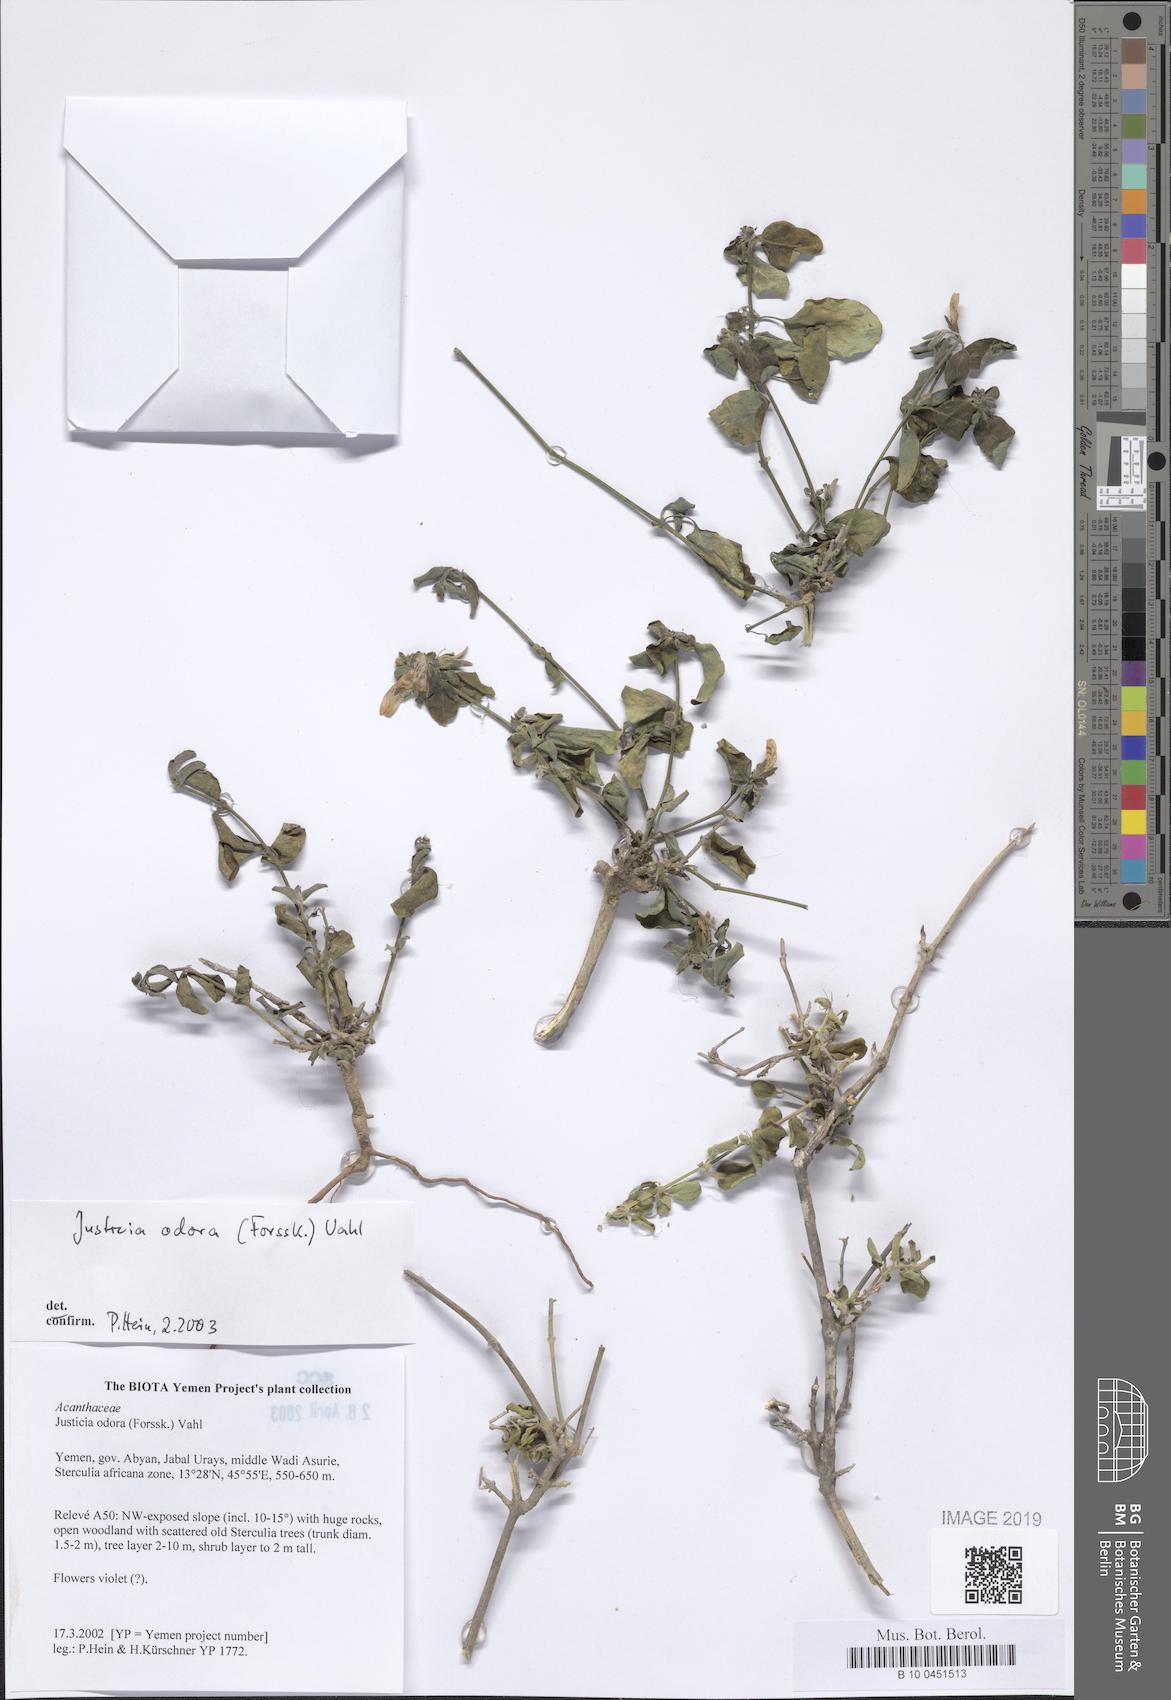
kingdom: Plantae
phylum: Tracheophyta
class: Magnoliopsida
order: Lamiales
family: Acanthaceae
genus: Justicia
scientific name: Justicia odora
